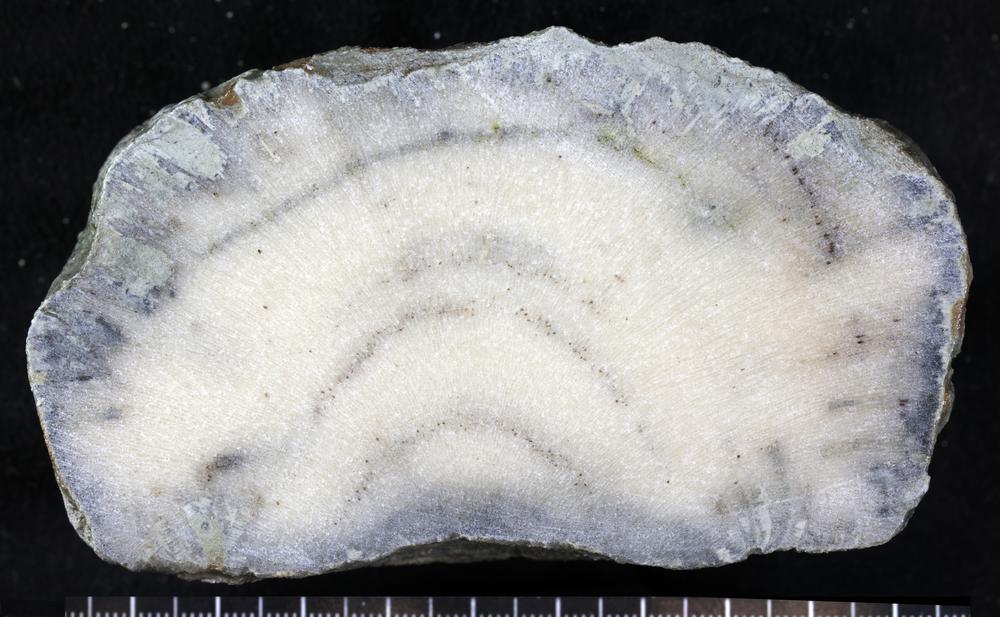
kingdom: Animalia
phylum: Bryozoa
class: Stenolaemata
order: Trepostomatida
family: Diplotrypidae
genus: Diplotrypa
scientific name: Diplotrypa petropolitana
